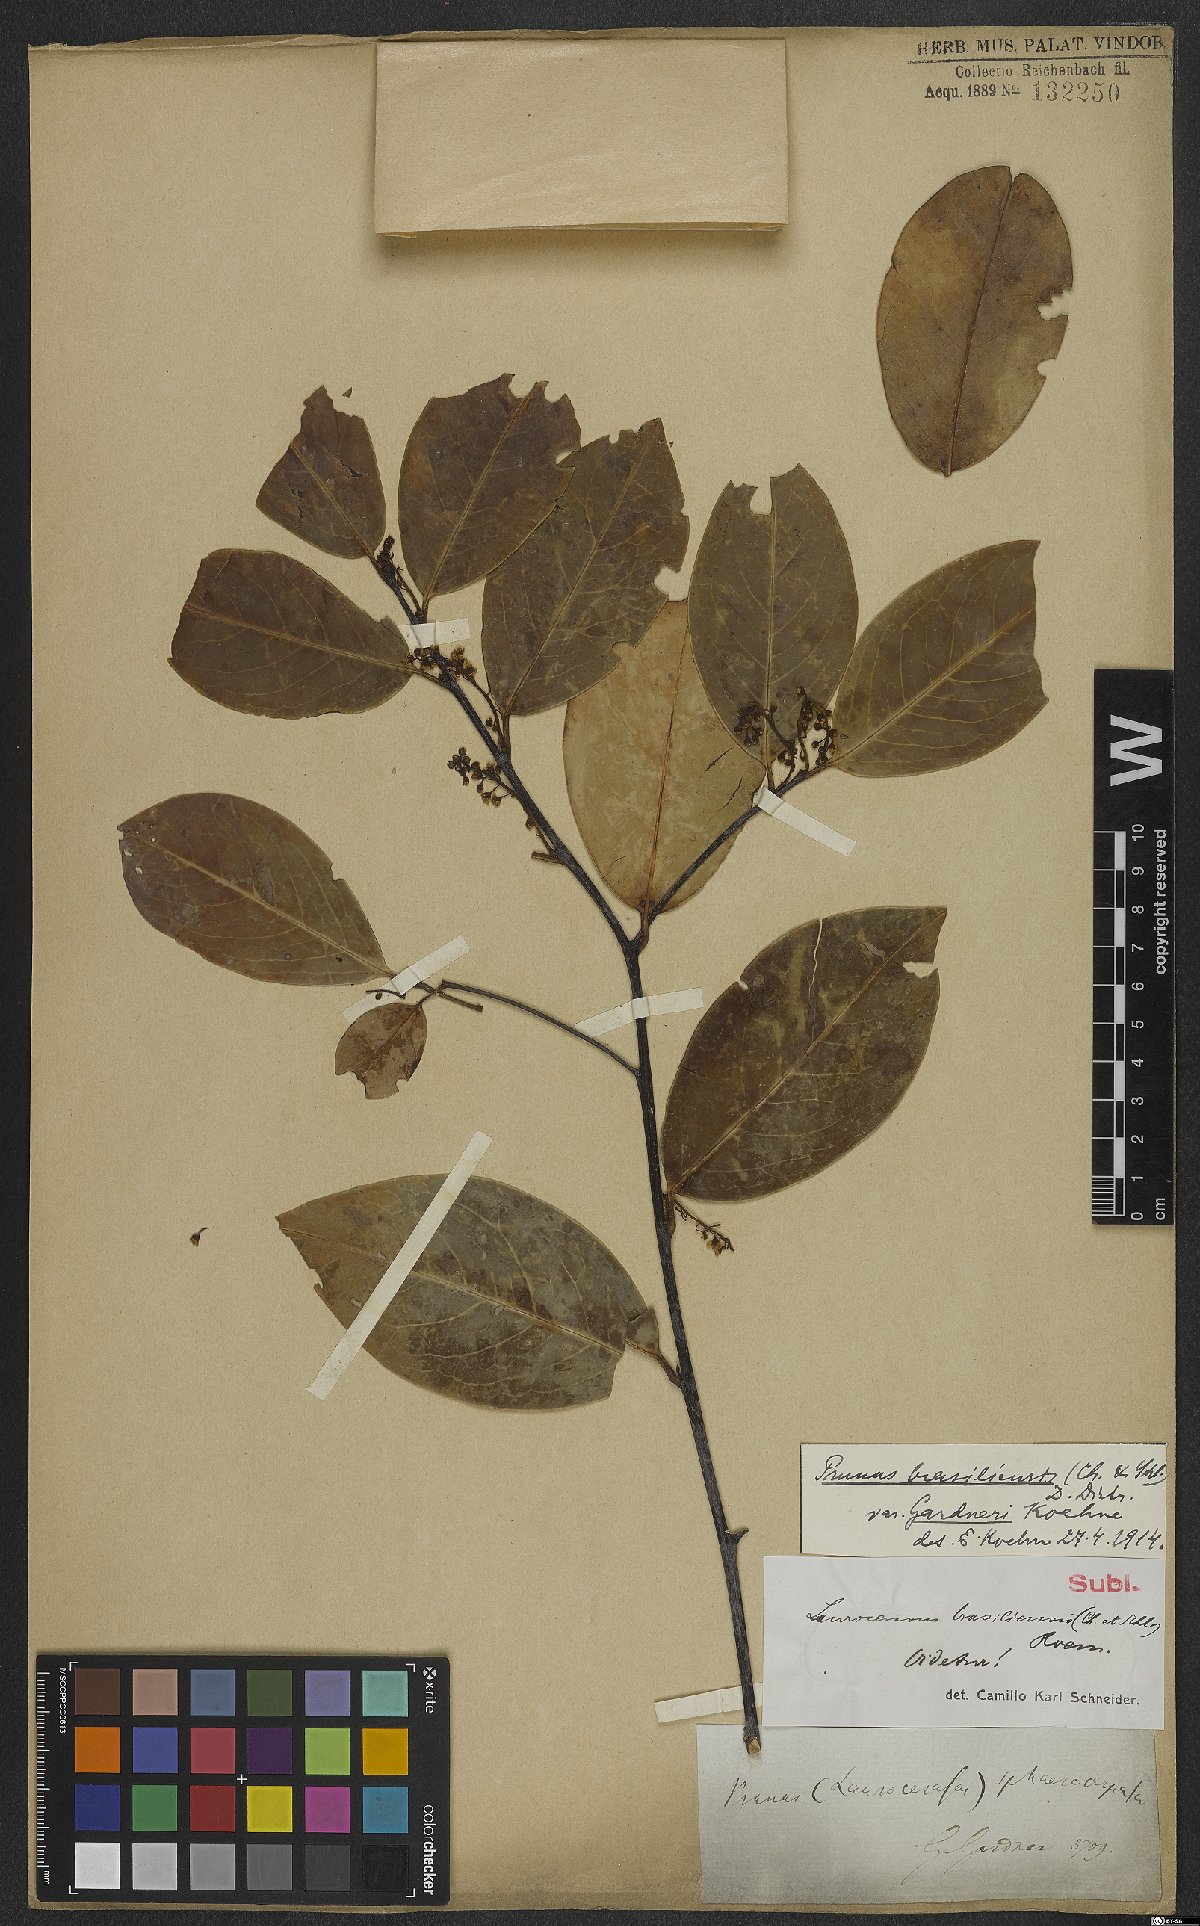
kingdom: Plantae
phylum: Tracheophyta
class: Magnoliopsida
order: Rosales
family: Rosaceae
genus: Prunus
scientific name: Prunus brasiliensis
